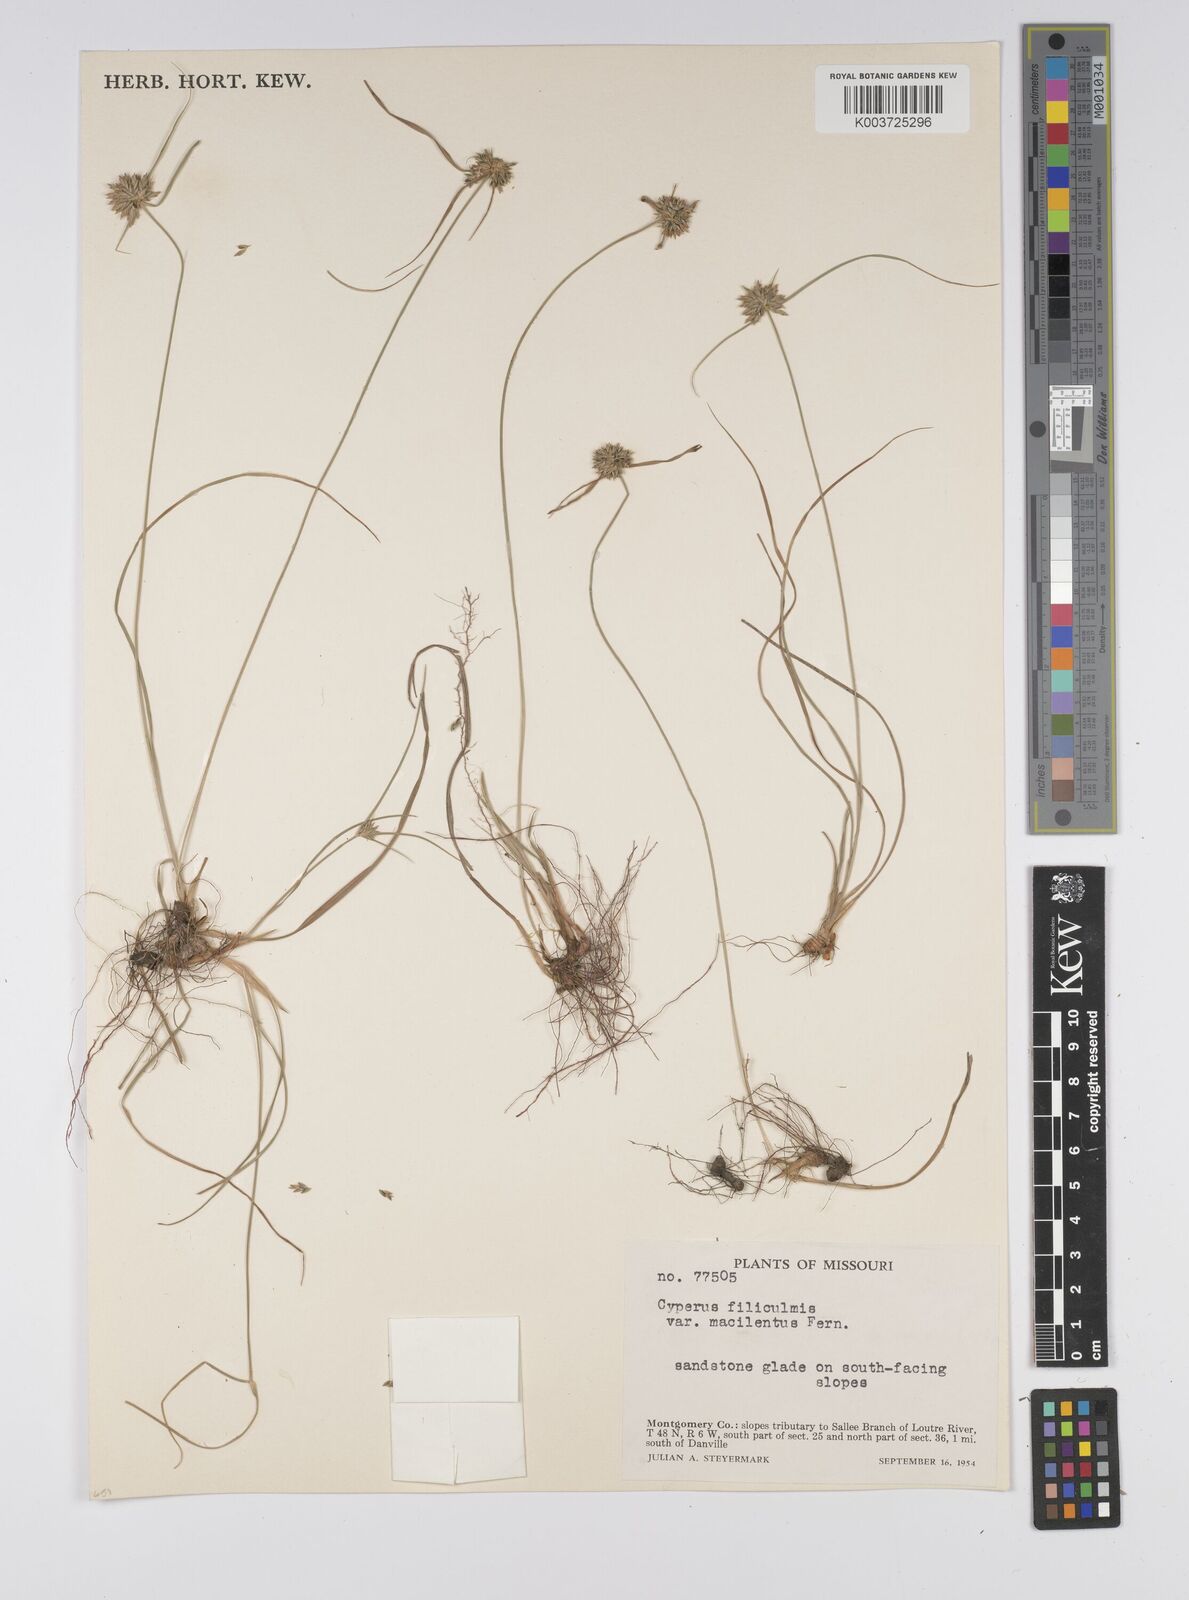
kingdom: Plantae
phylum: Tracheophyta
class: Liliopsida
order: Poales
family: Cyperaceae
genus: Cyperus
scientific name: Cyperus lupulinus
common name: Great plains flatsedge
